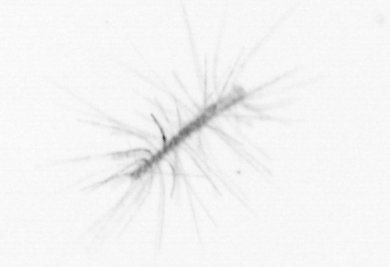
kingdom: Chromista
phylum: Ochrophyta
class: Bacillariophyceae
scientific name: Bacillariophyceae
